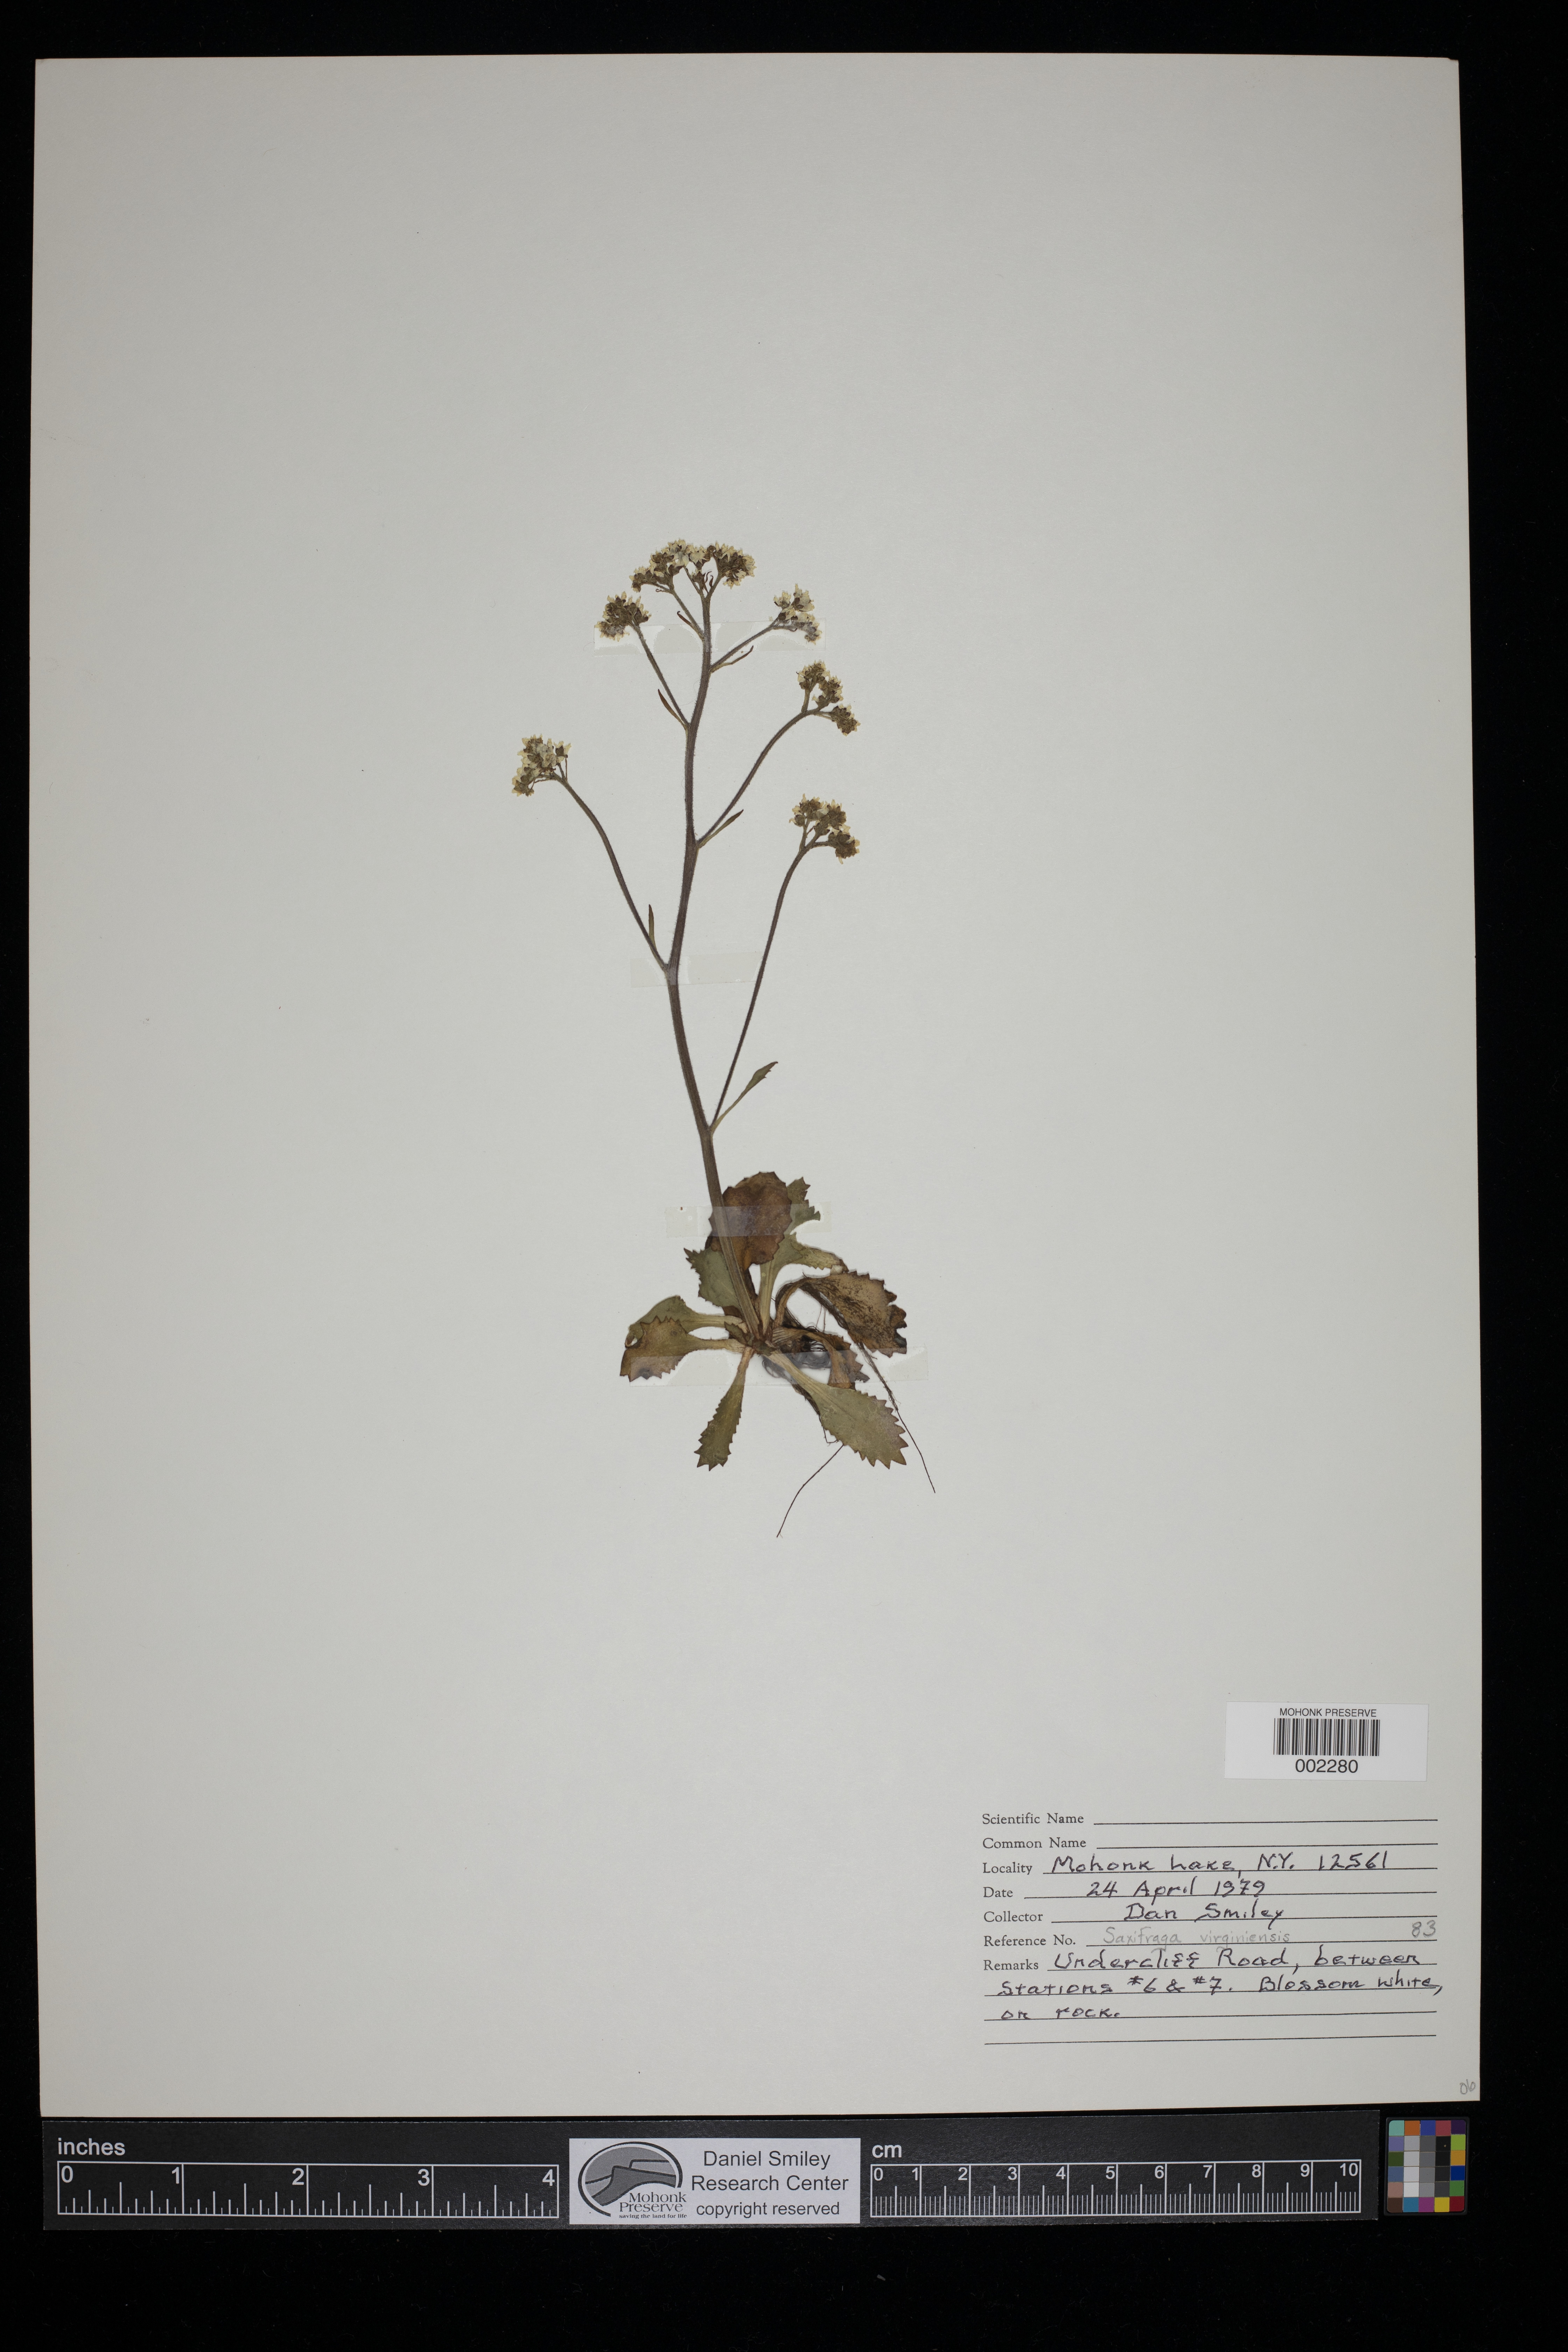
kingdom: Plantae
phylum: Tracheophyta
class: Magnoliopsida
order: Saxifragales
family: Saxifragaceae
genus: Micranthes
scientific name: Micranthes virginiensis
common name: Early saxifrage
